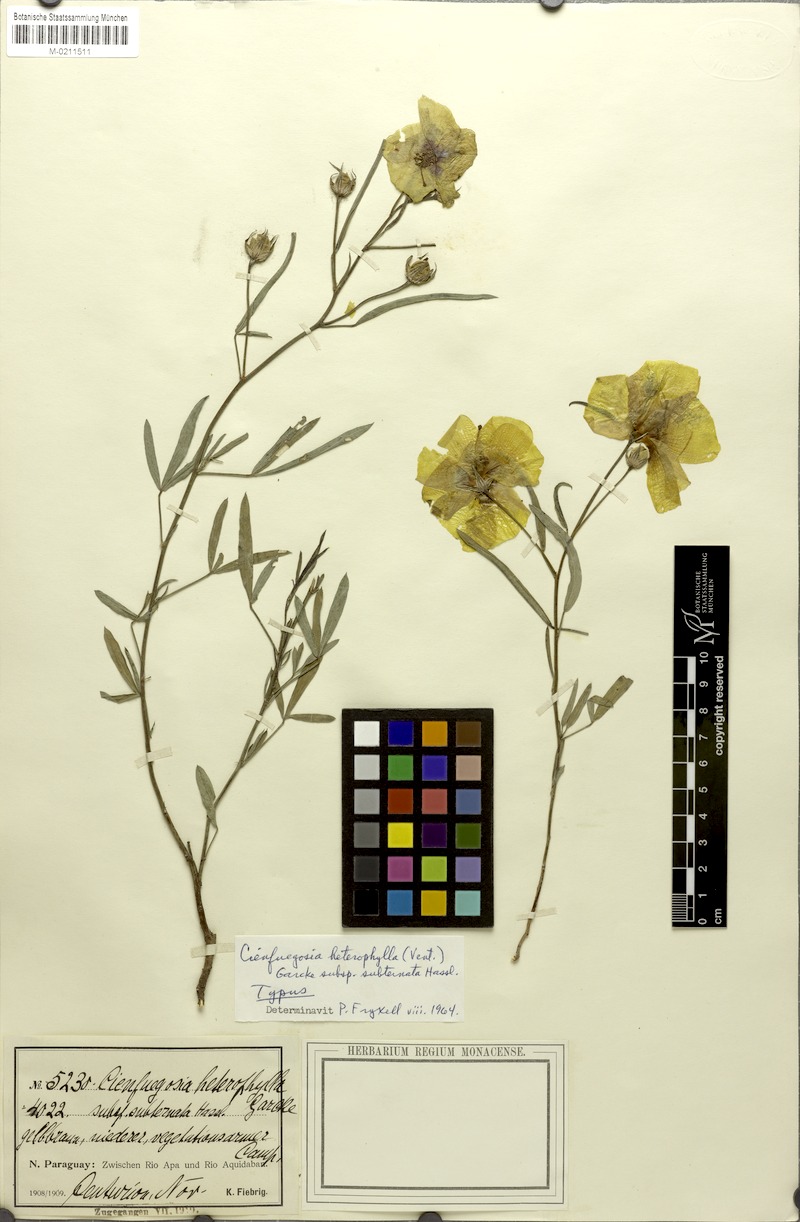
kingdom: Plantae
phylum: Tracheophyta
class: Magnoliopsida
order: Malvales
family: Malvaceae
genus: Cienfuegosia
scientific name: Cienfuegosia subternata
